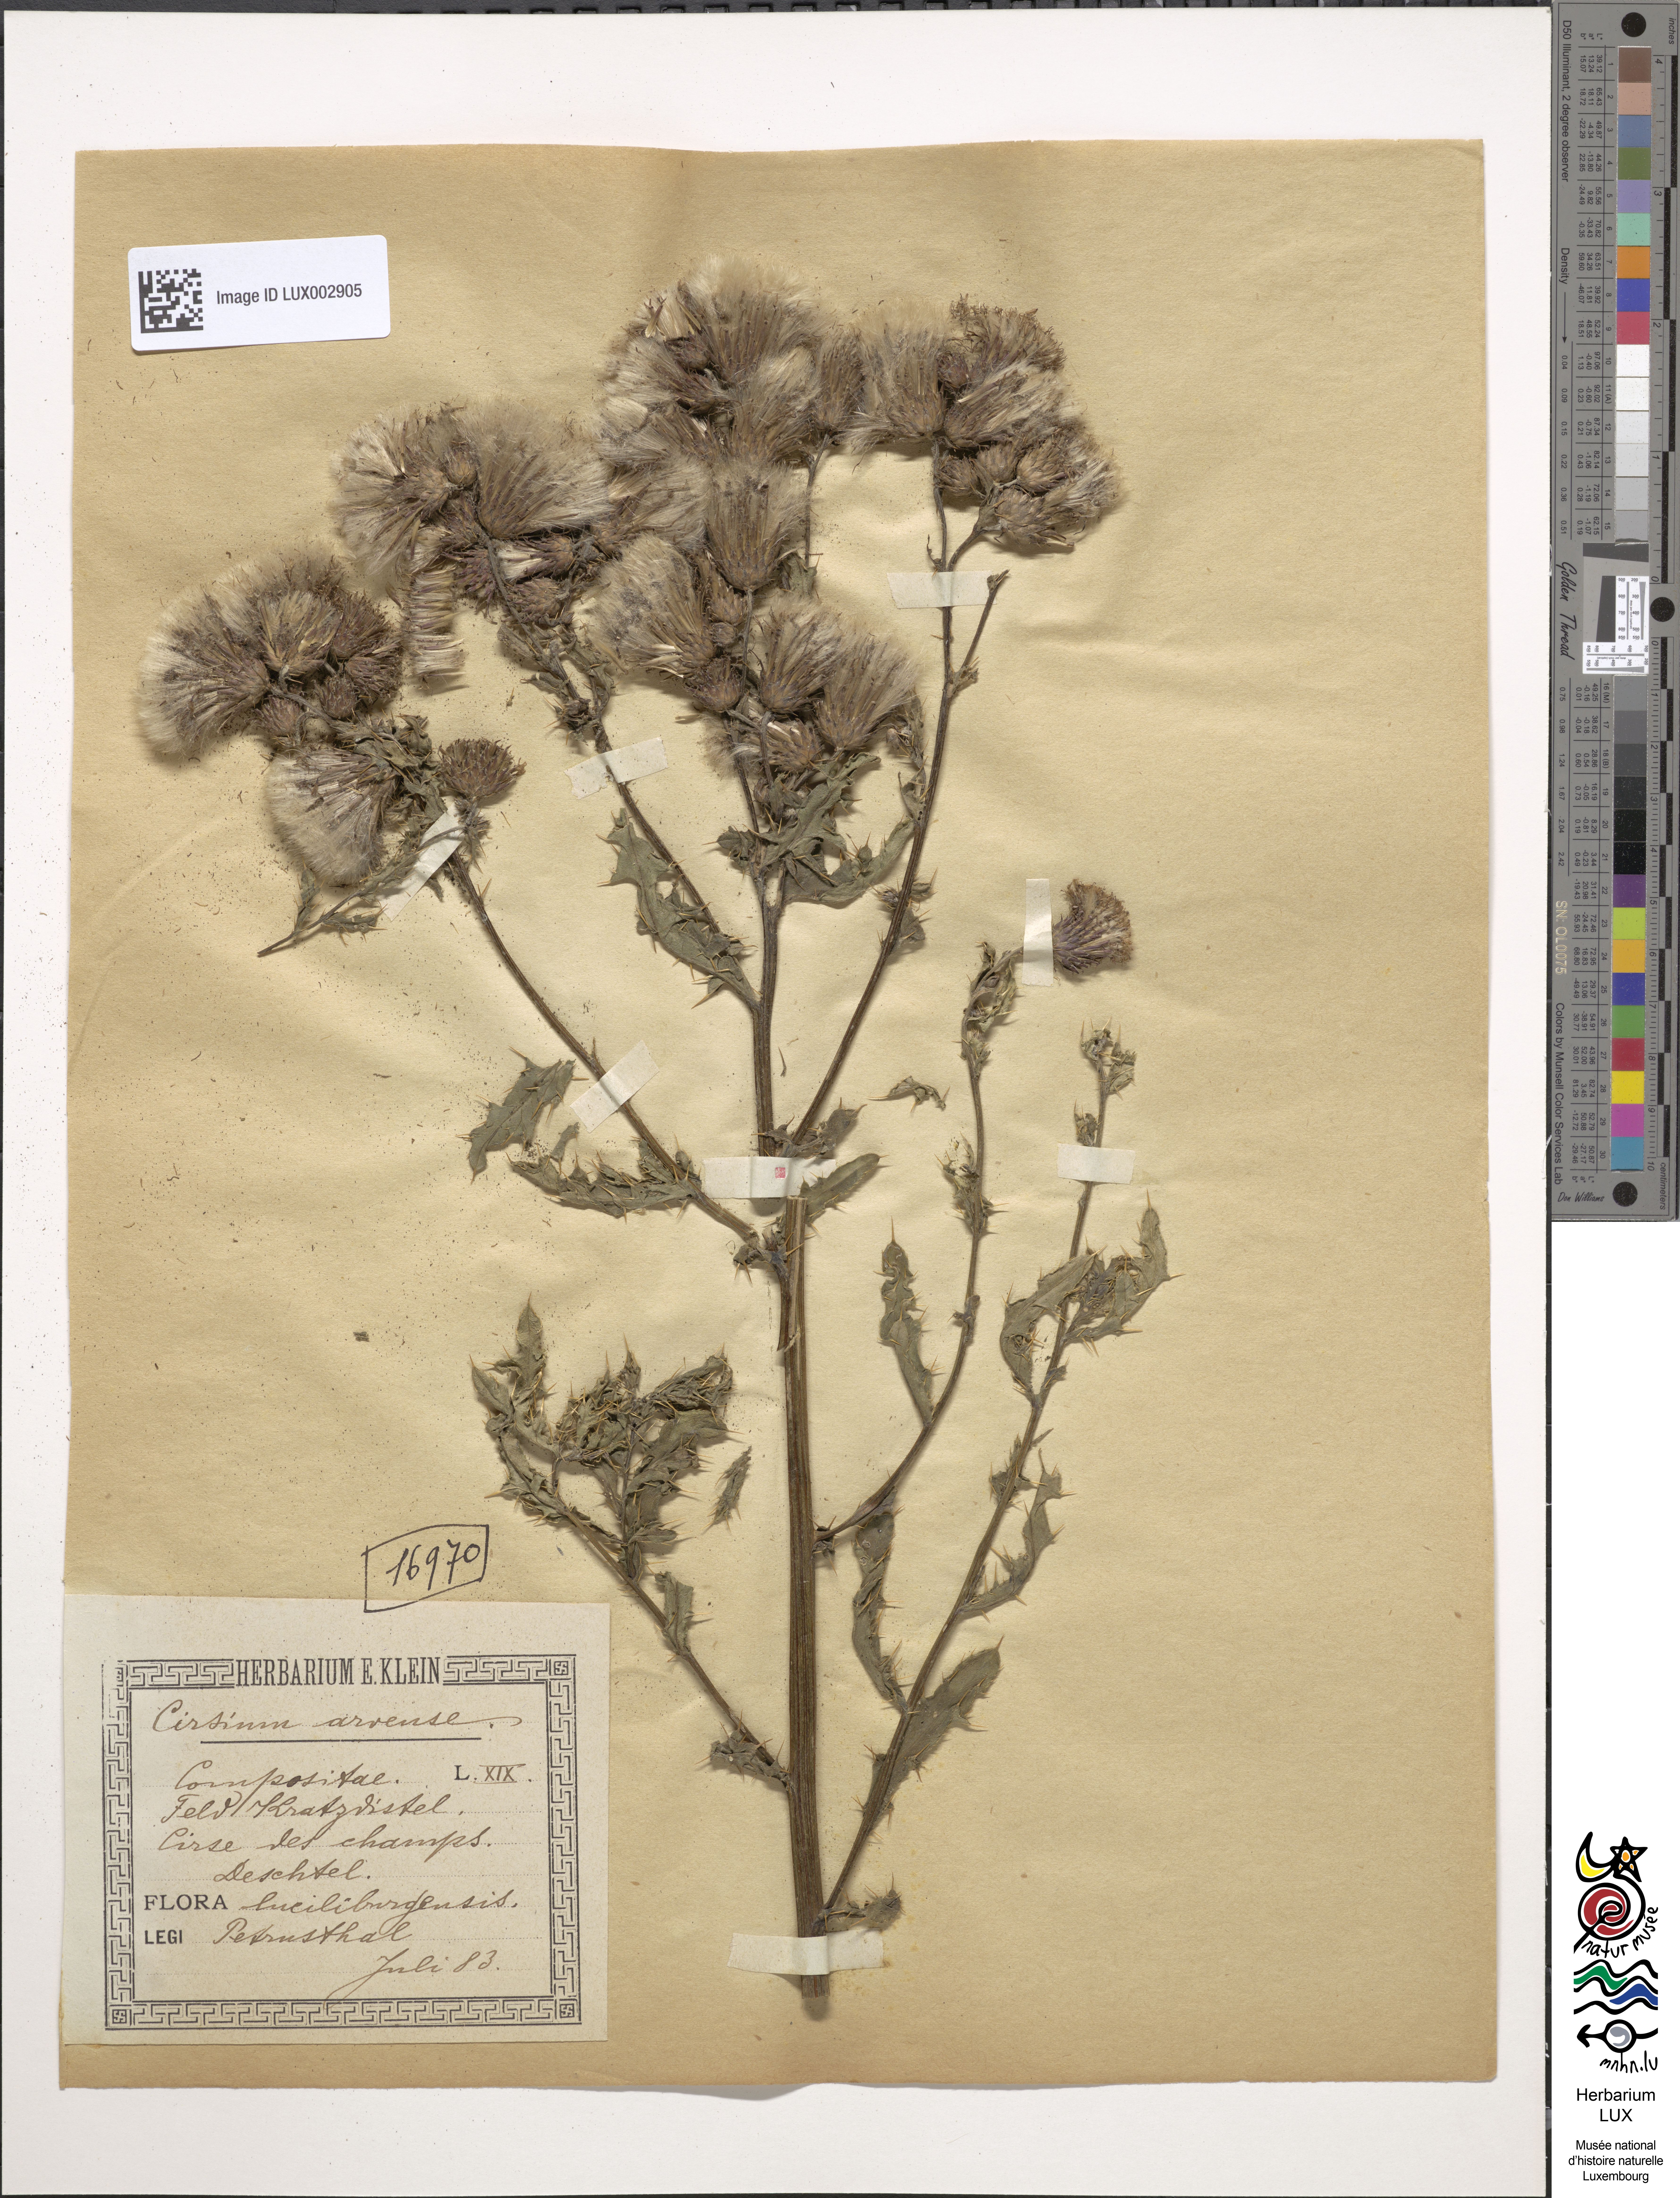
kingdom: Plantae
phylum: Tracheophyta
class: Magnoliopsida
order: Asterales
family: Asteraceae
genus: Cirsium
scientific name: Cirsium arvense
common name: Creeping thistle
